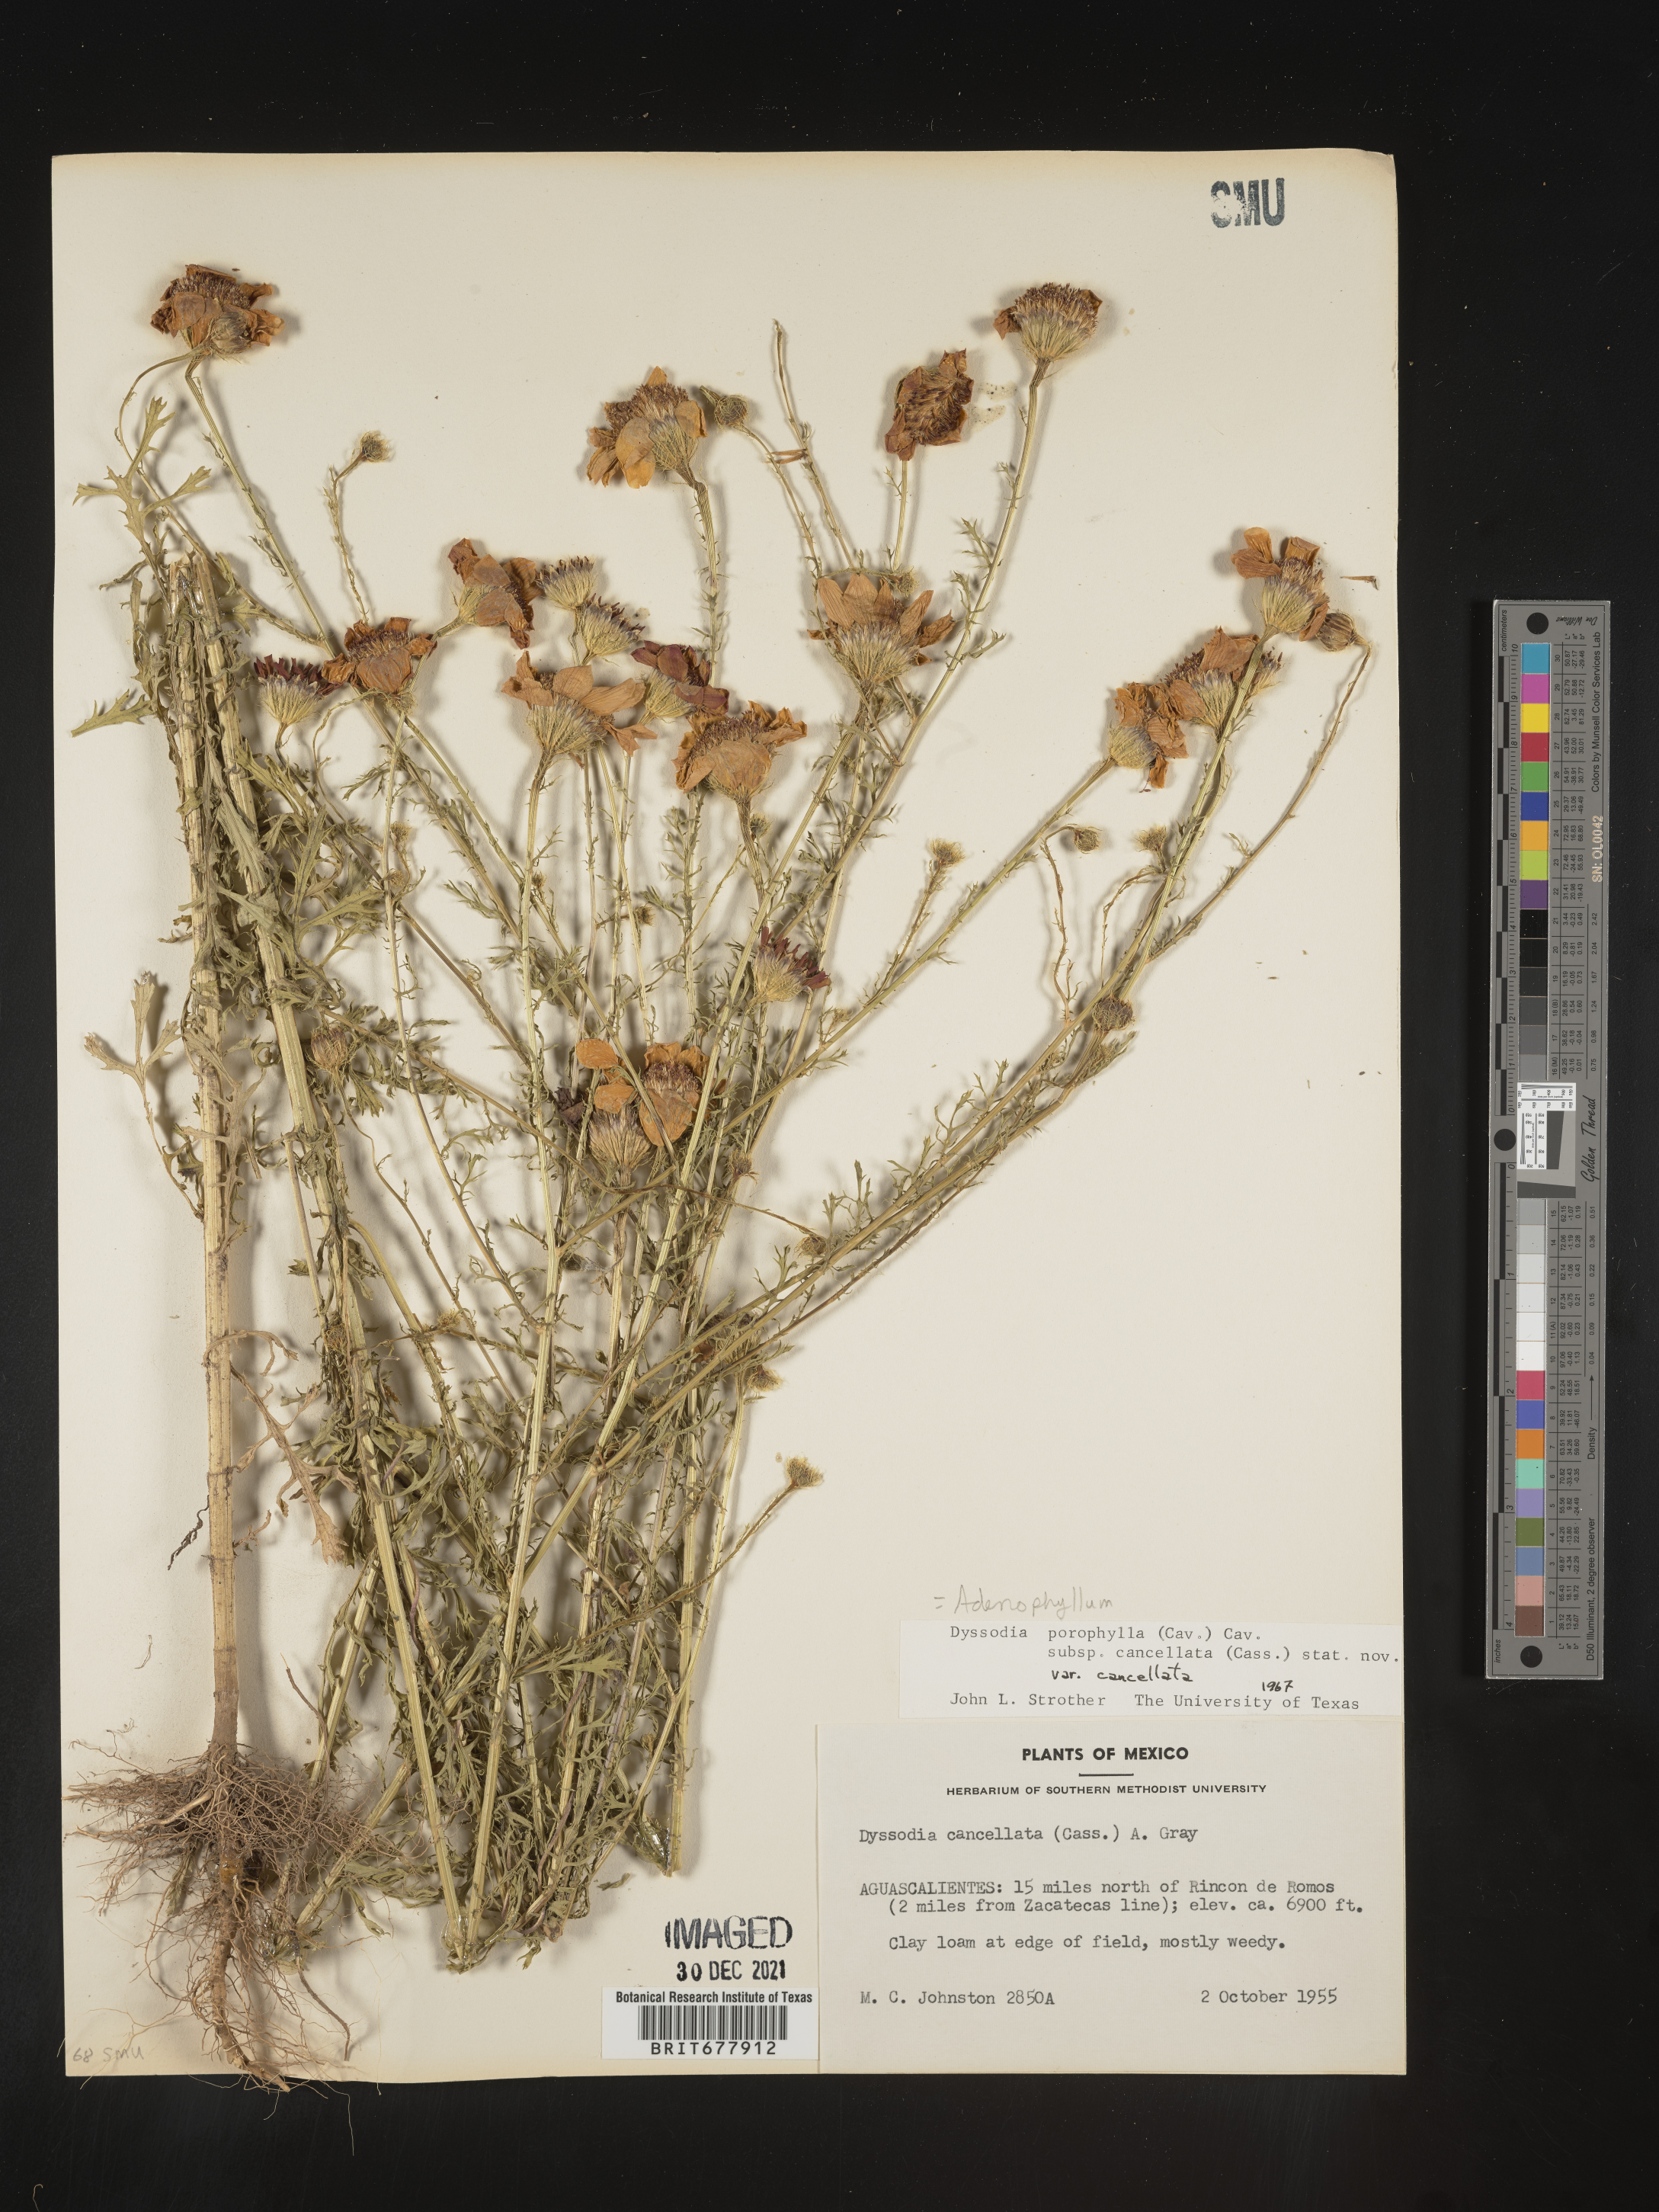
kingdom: Plantae
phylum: Tracheophyta
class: Magnoliopsida
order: Asterales
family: Asteraceae
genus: Adenophyllum
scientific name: Adenophyllum porophyllum
